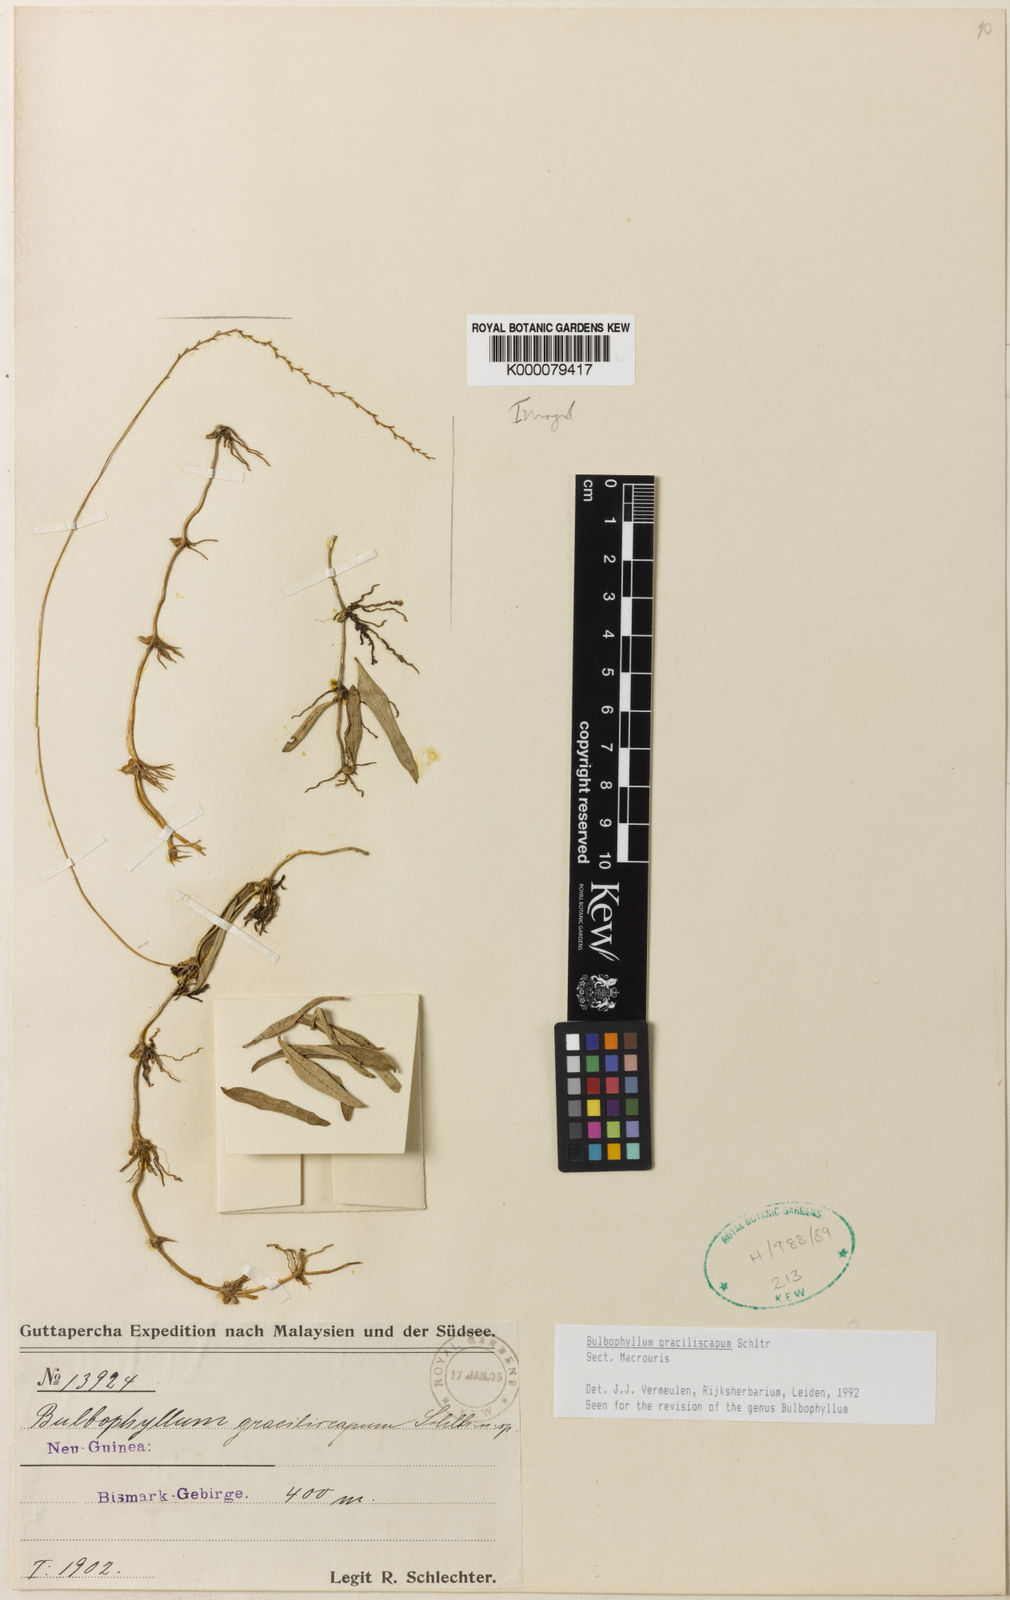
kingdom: Plantae
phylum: Tracheophyta
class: Liliopsida
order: Asparagales
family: Orchidaceae
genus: Bulbophyllum
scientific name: Bulbophyllum
